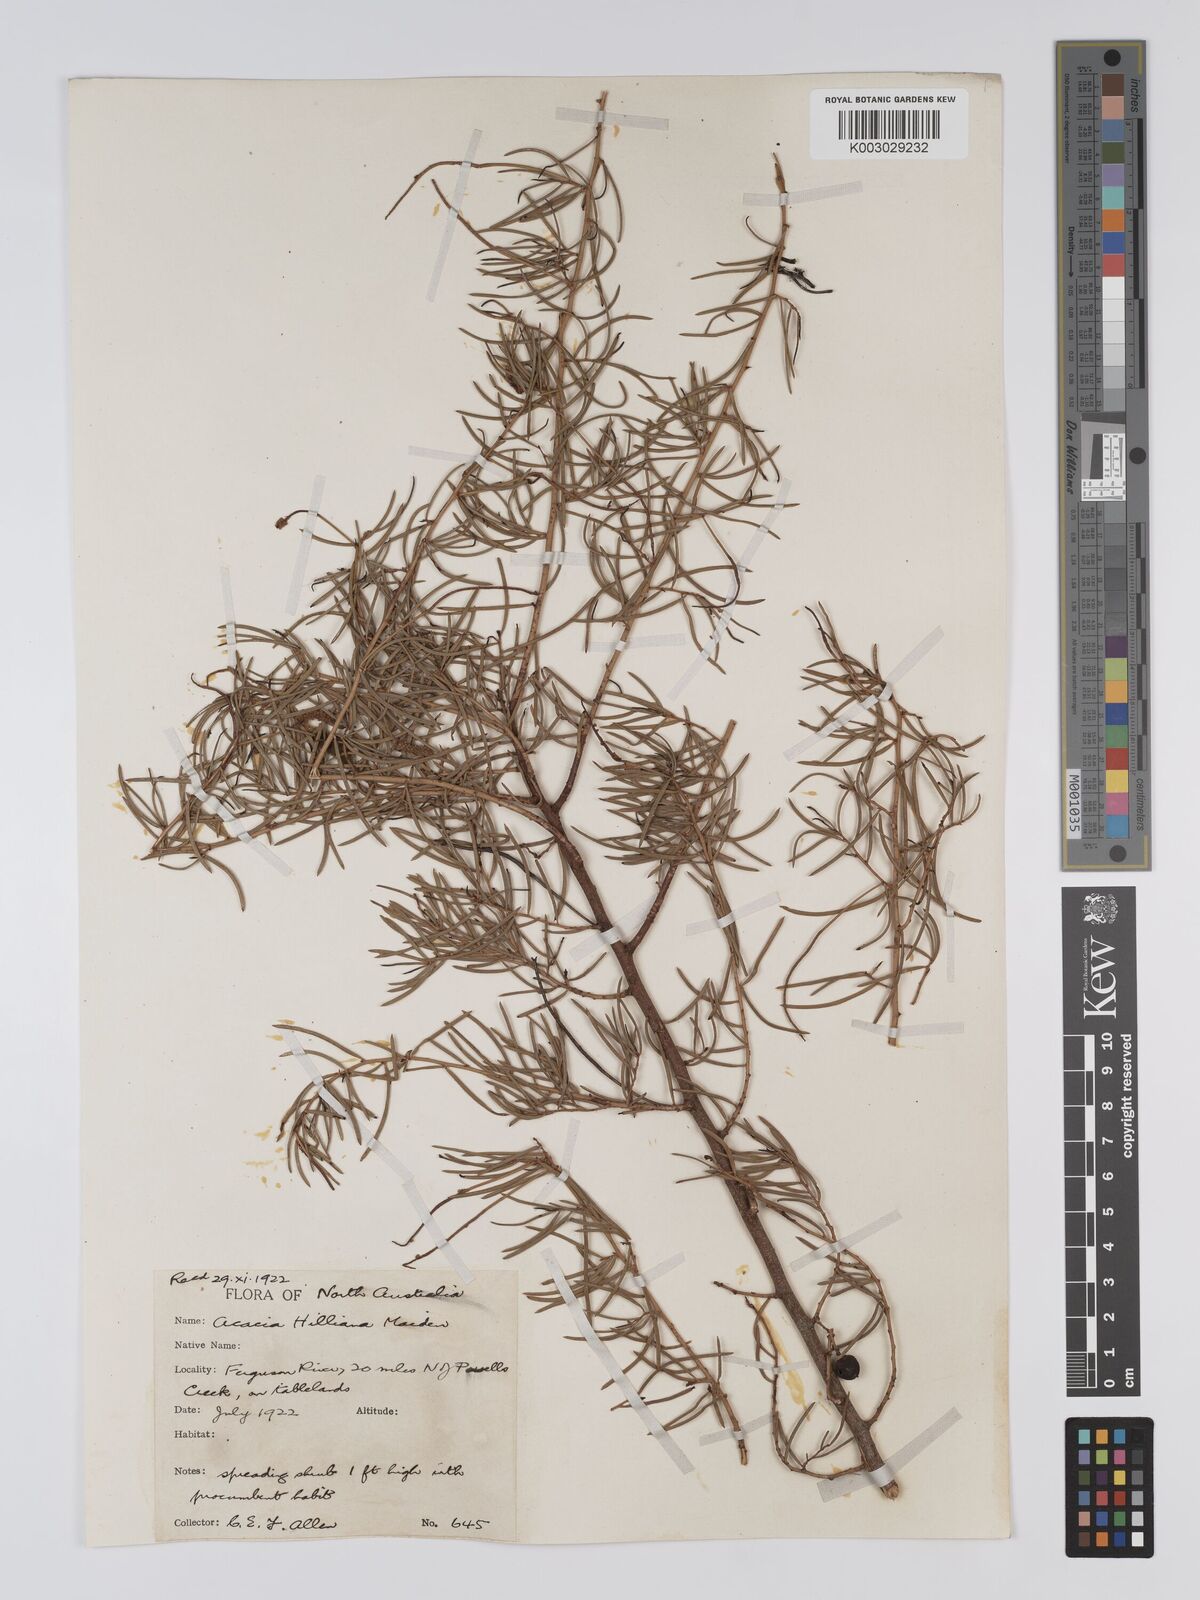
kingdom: Plantae
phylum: Tracheophyta
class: Magnoliopsida
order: Fabales
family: Fabaceae
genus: Acacia
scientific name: Acacia hilliana
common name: Hill's tabletop wattle
